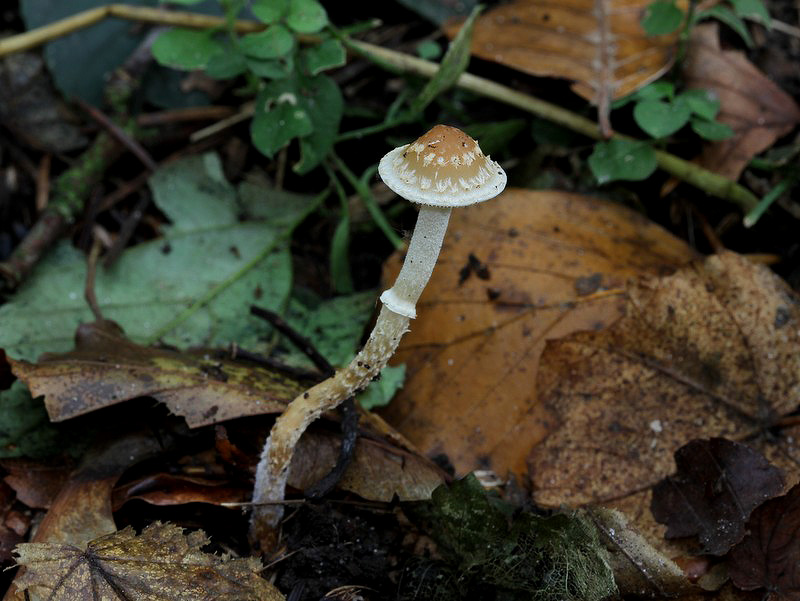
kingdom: Fungi
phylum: Basidiomycota
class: Agaricomycetes
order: Agaricales
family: Strophariaceae
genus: Leratiomyces
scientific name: Leratiomyces squamosus
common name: skællet bredblad
